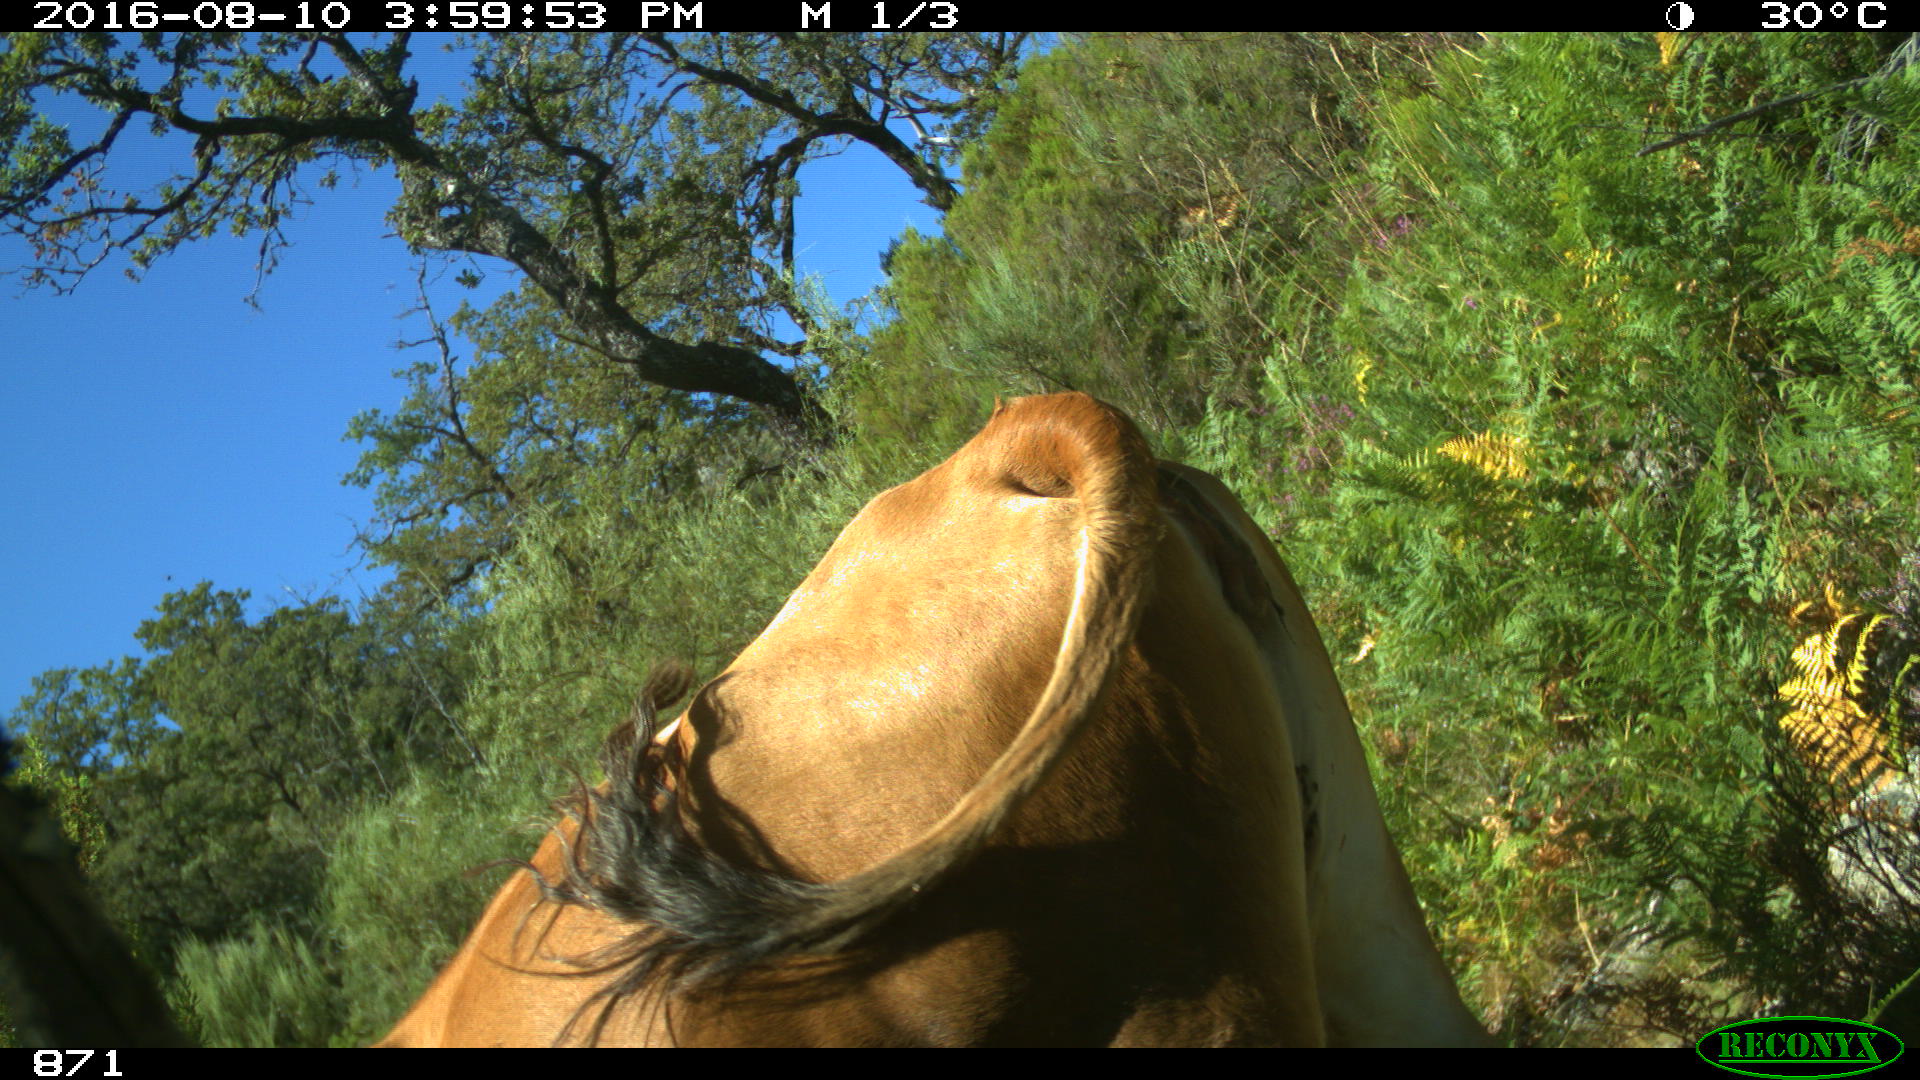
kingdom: Animalia
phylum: Chordata
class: Mammalia
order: Artiodactyla
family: Bovidae
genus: Bos
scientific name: Bos taurus
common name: Domesticated cattle
